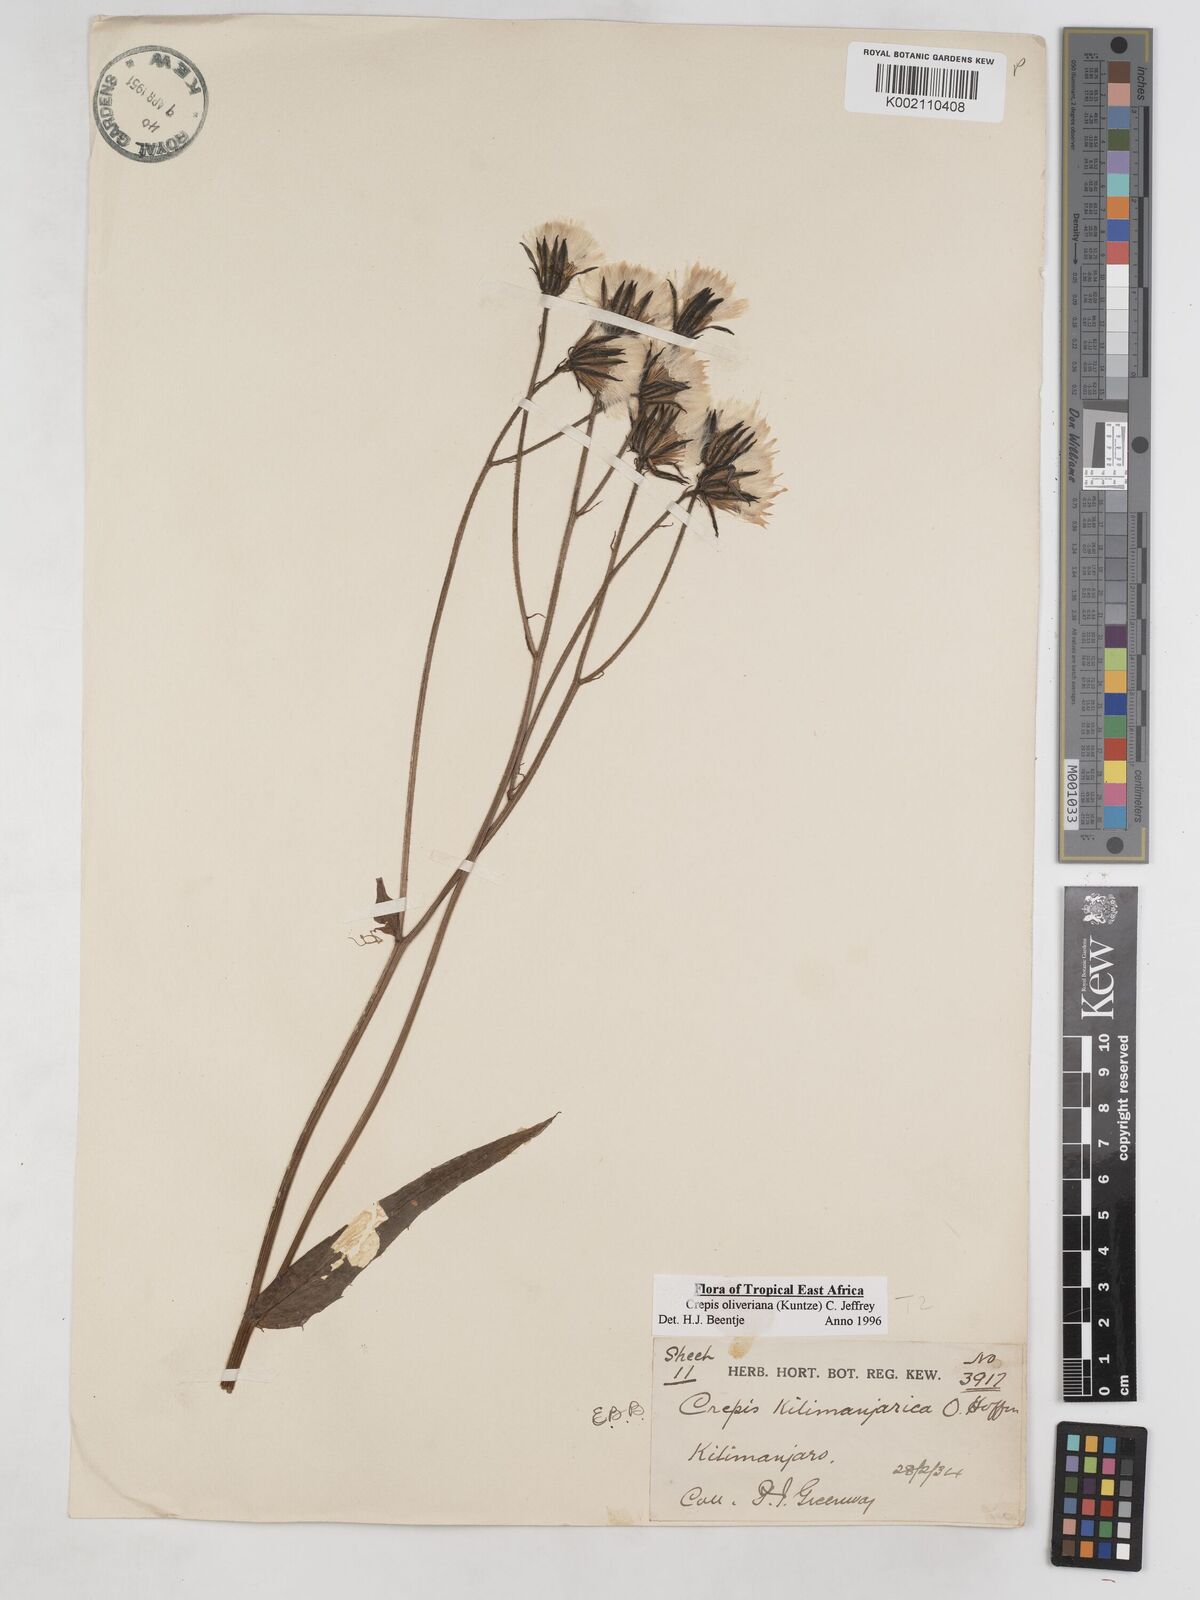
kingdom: Plantae
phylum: Tracheophyta
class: Magnoliopsida
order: Asterales
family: Asteraceae
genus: Crepis
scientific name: Crepis hypochoeridea
